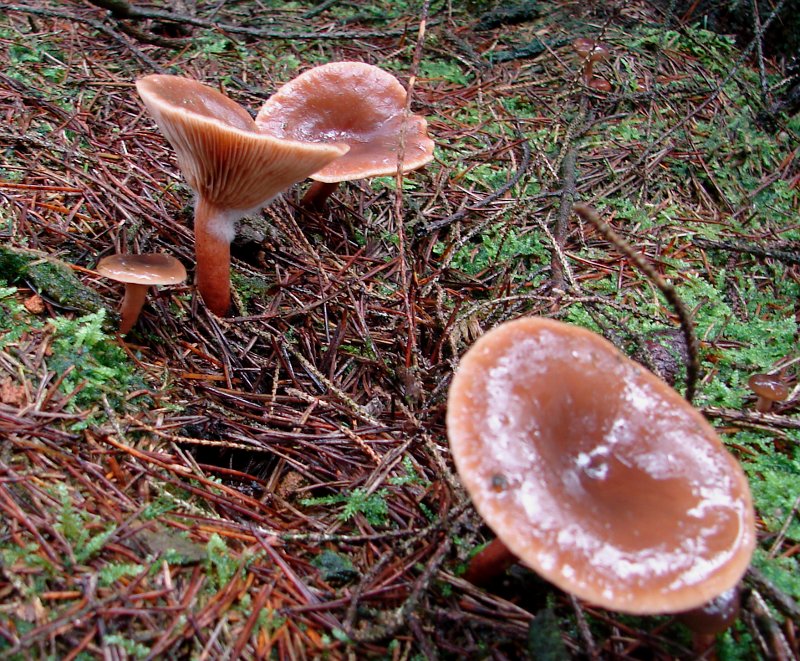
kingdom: Fungi
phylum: Basidiomycota
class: Agaricomycetes
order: Russulales
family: Russulaceae
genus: Lactarius
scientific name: Lactarius hepaticus
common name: leverbrun mælkehat
